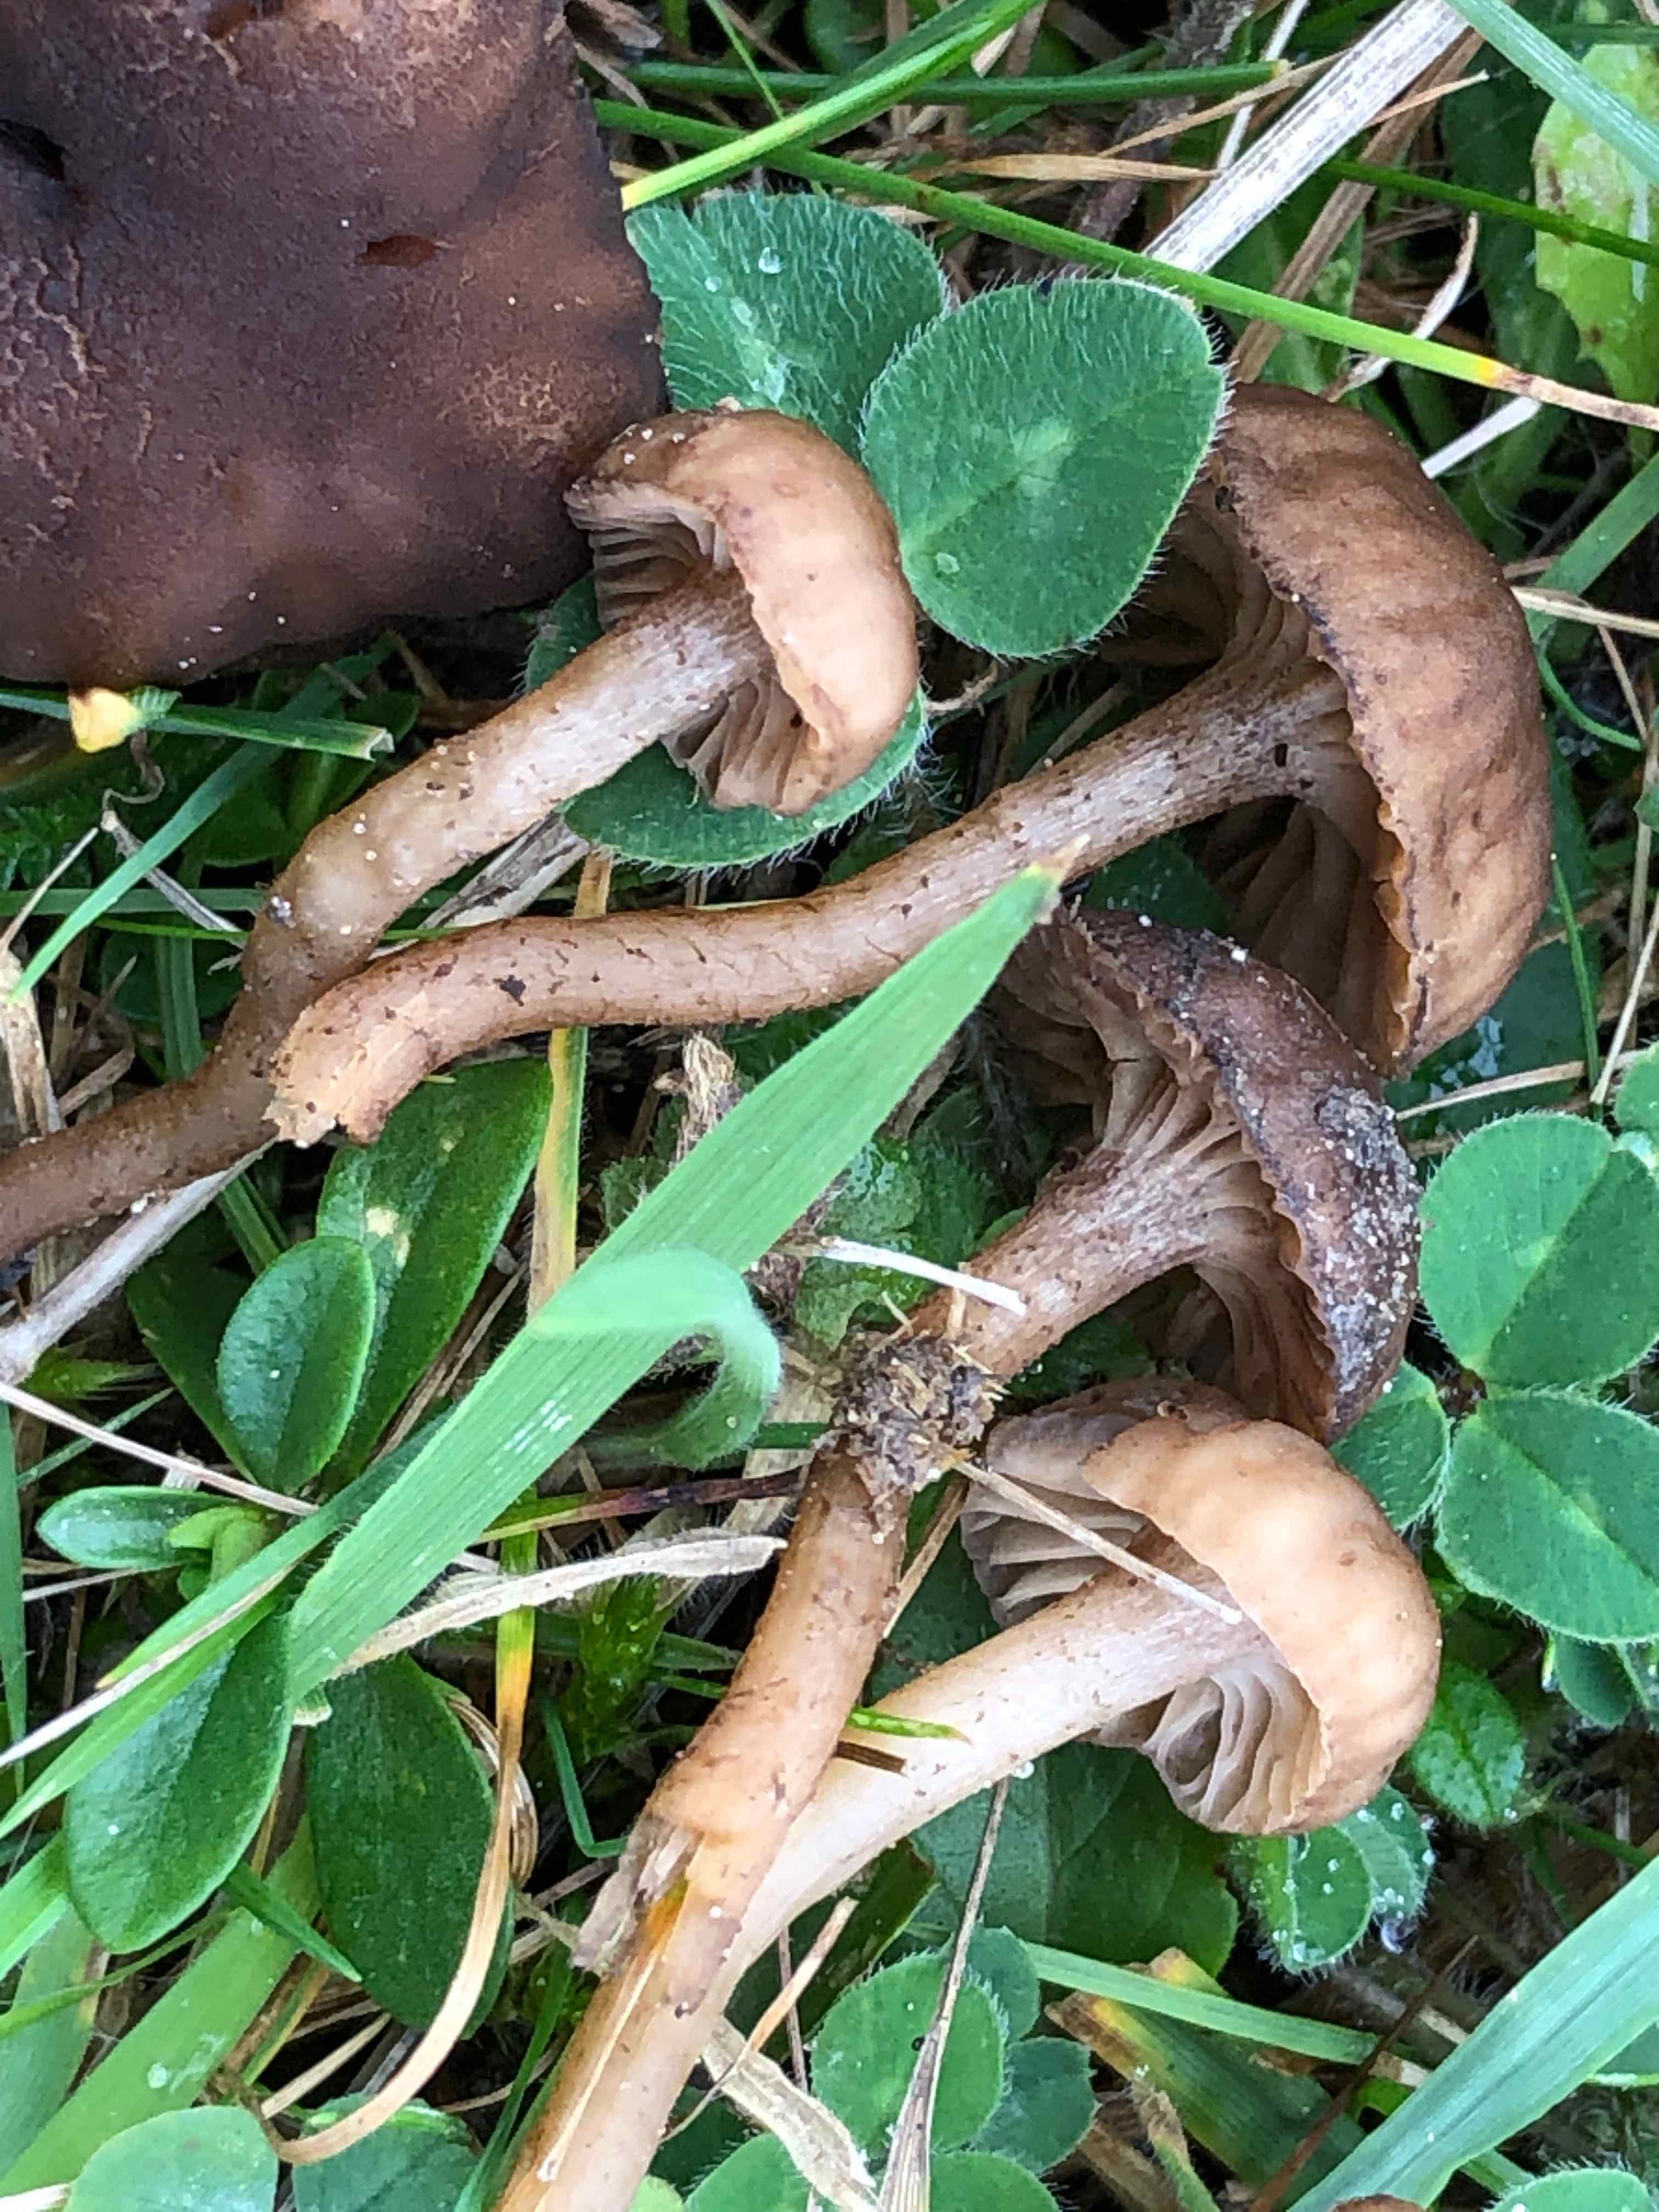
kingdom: Fungi
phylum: Basidiomycota
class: Agaricomycetes
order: Agaricales
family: Clavariaceae
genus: Hodophilus
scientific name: Hodophilus foetens
